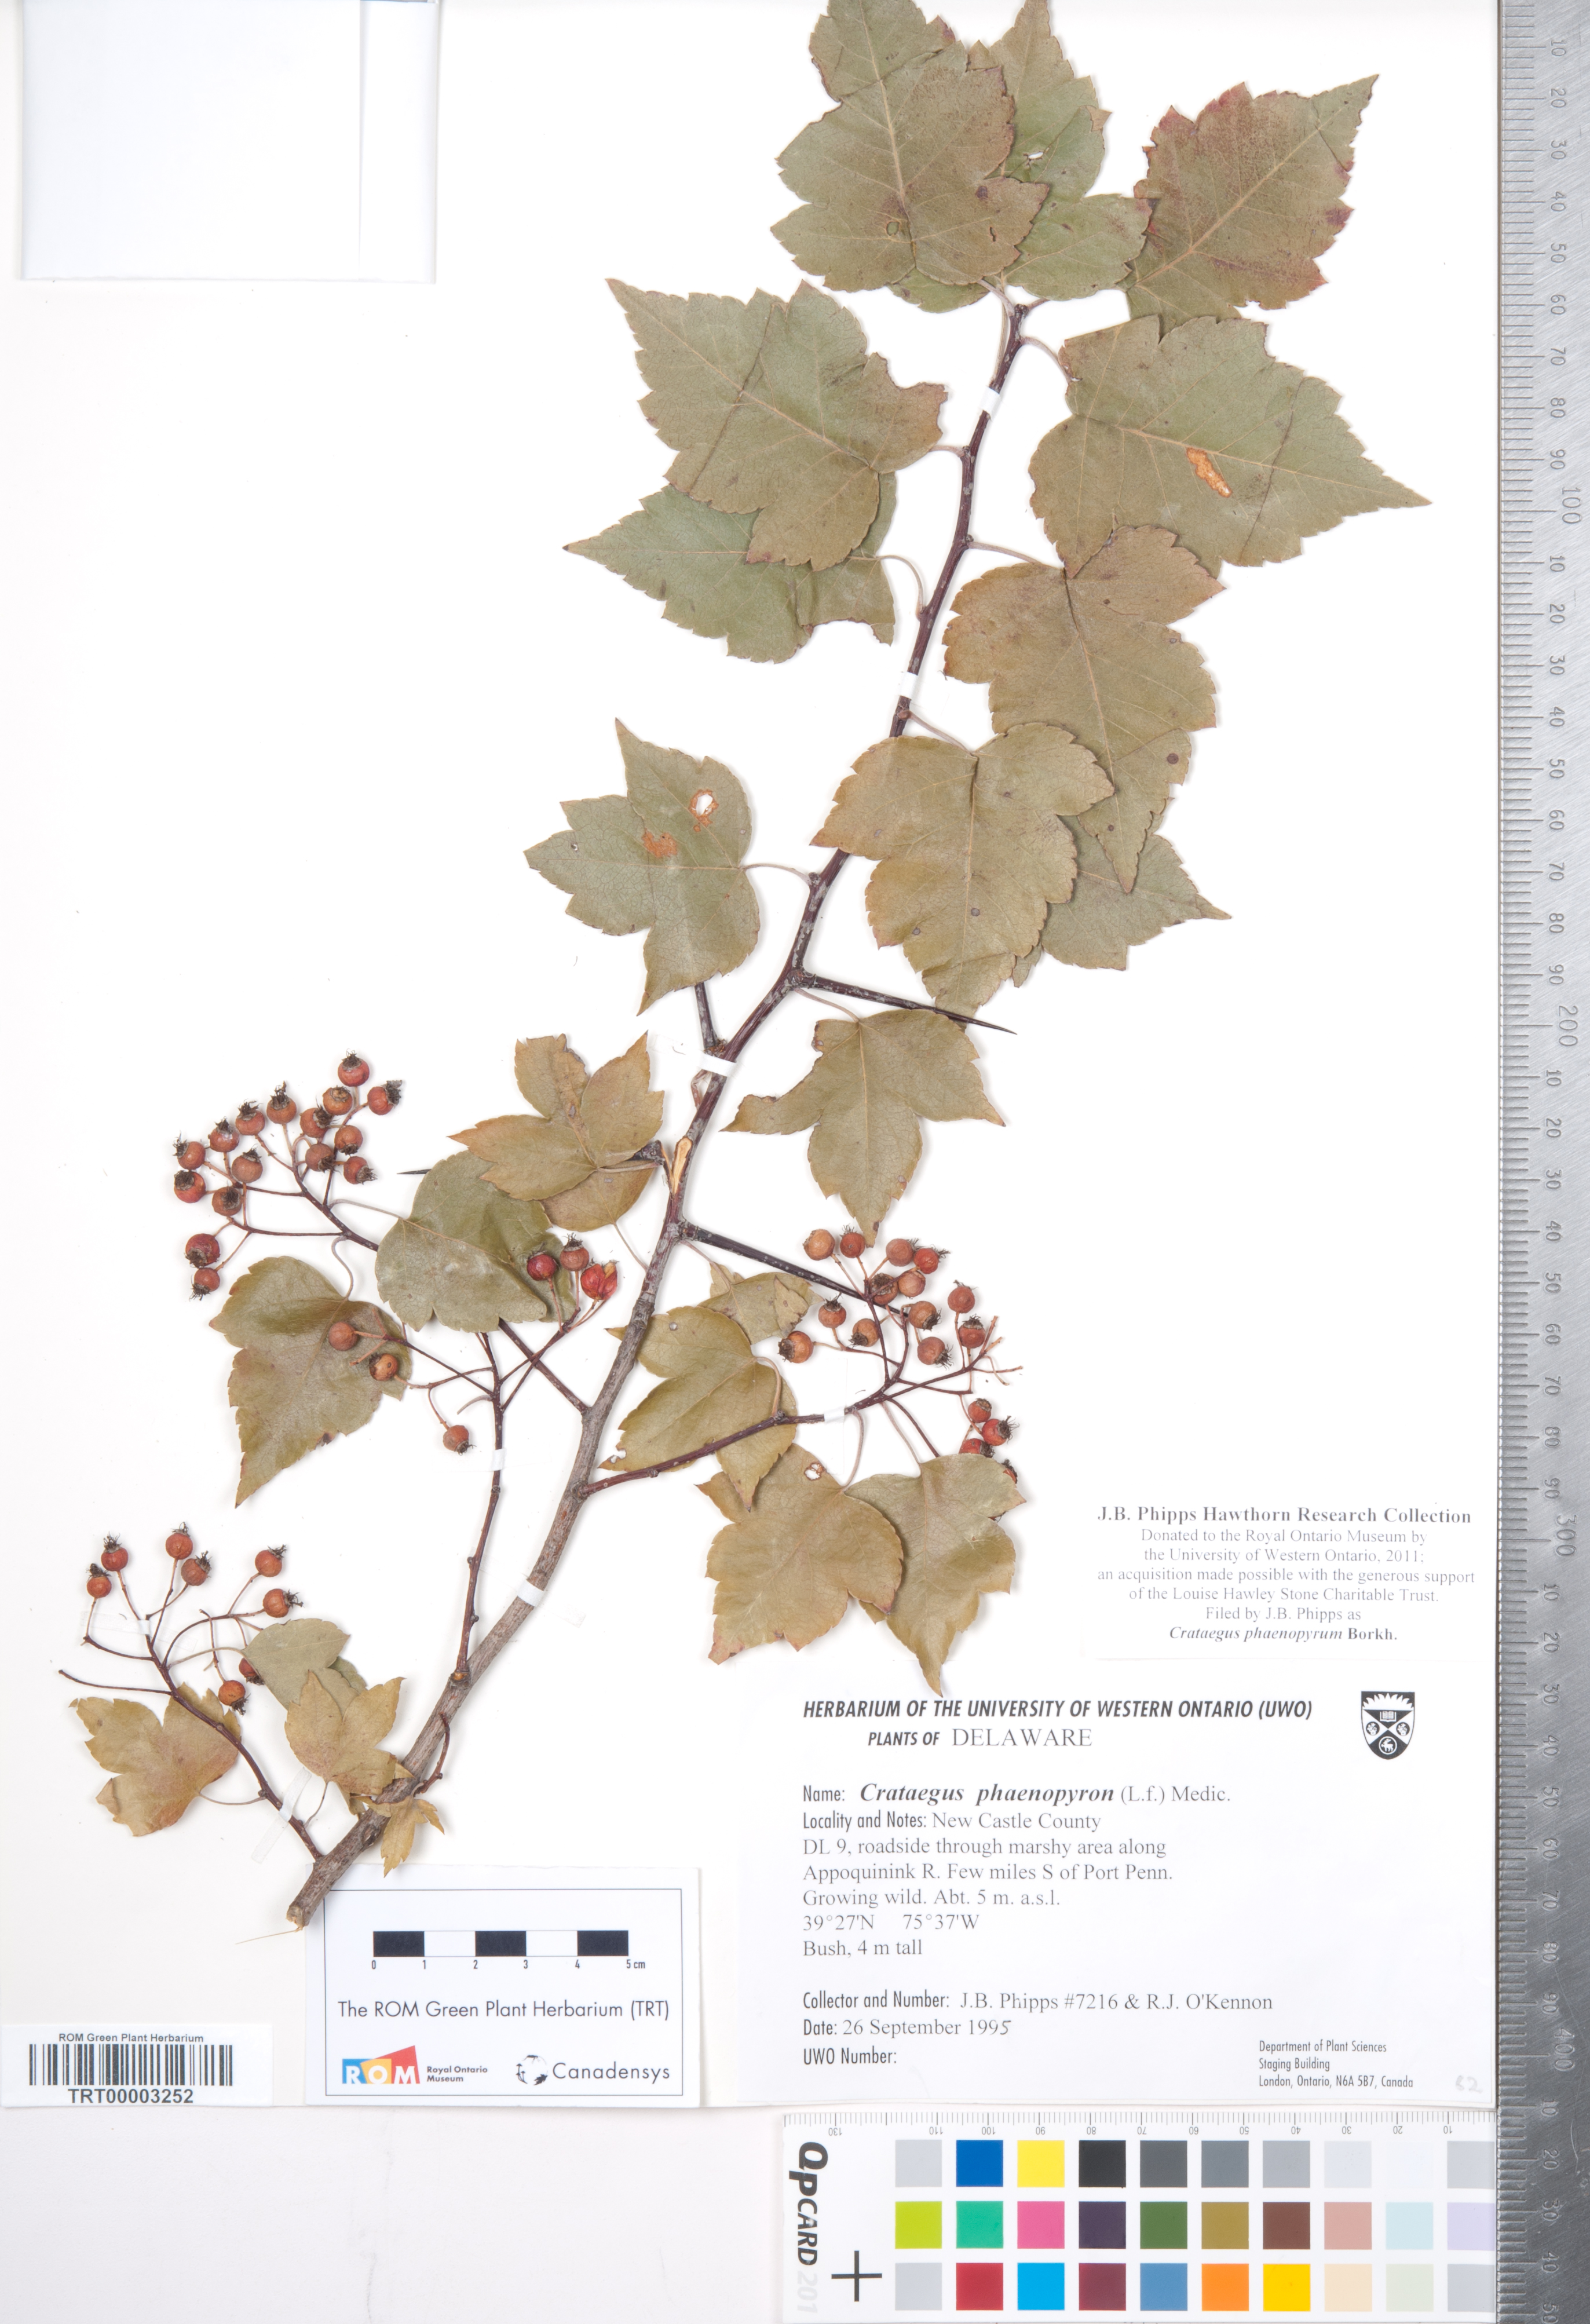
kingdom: Plantae
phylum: Tracheophyta
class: Magnoliopsida
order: Rosales
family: Rosaceae
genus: Crataegus
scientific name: Crataegus phaenopyrum
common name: Washington hawthorn
